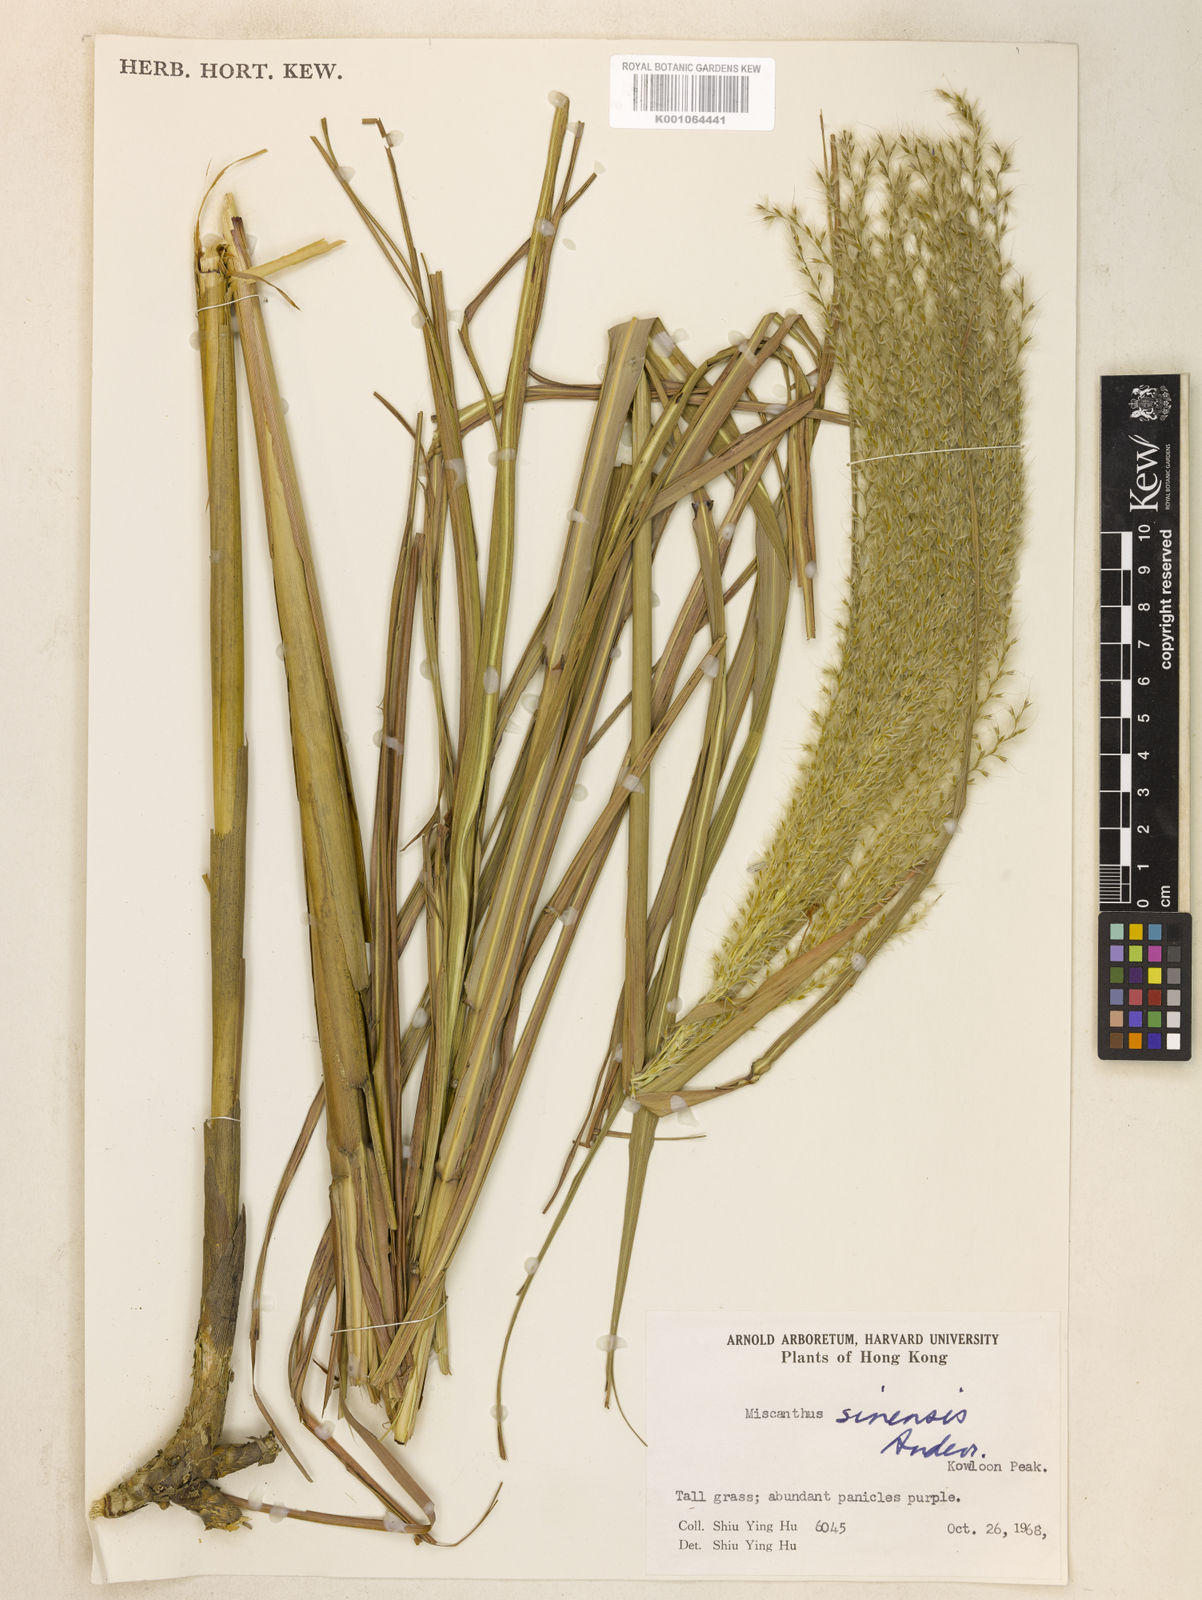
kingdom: Plantae
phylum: Tracheophyta
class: Liliopsida
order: Poales
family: Poaceae
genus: Miscanthus
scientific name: Miscanthus sinensis
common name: Chinese silvergrass
